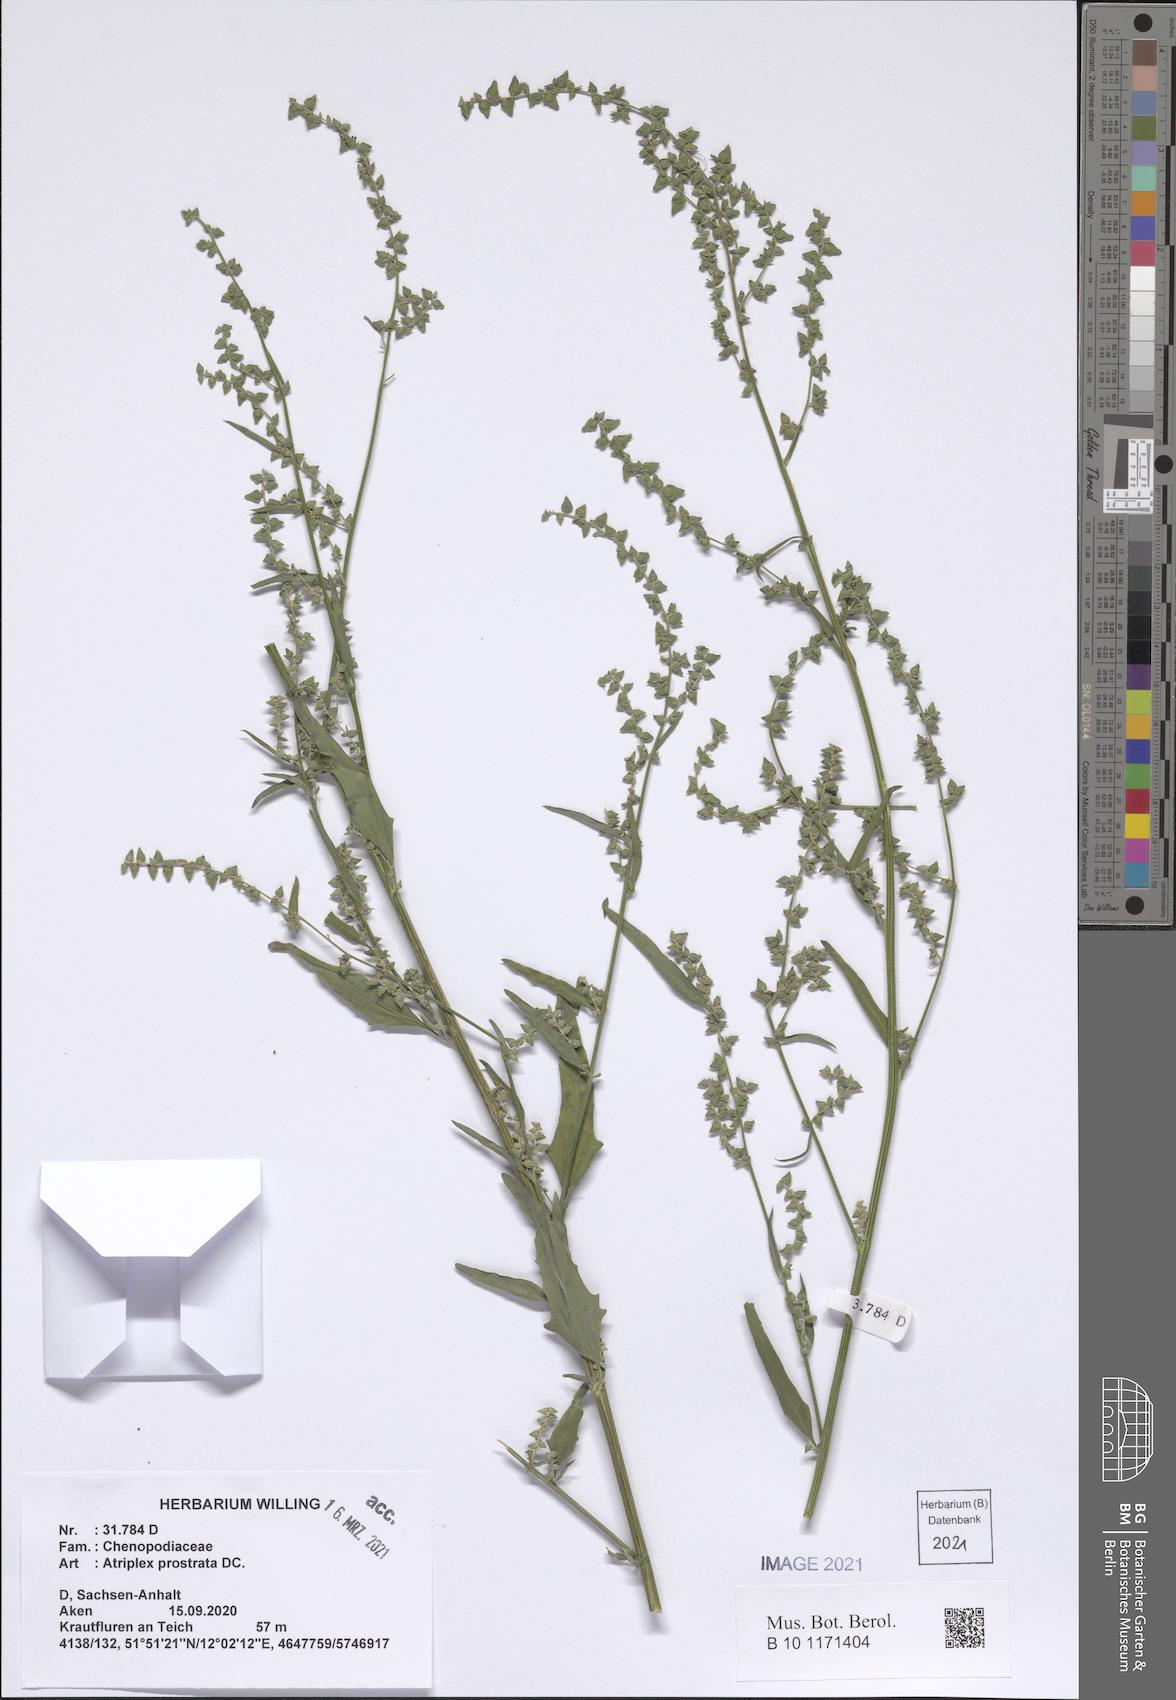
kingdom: Plantae
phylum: Tracheophyta
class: Magnoliopsida
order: Caryophyllales
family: Amaranthaceae
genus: Atriplex
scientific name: Atriplex prostrata
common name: Spear-leaved orache
